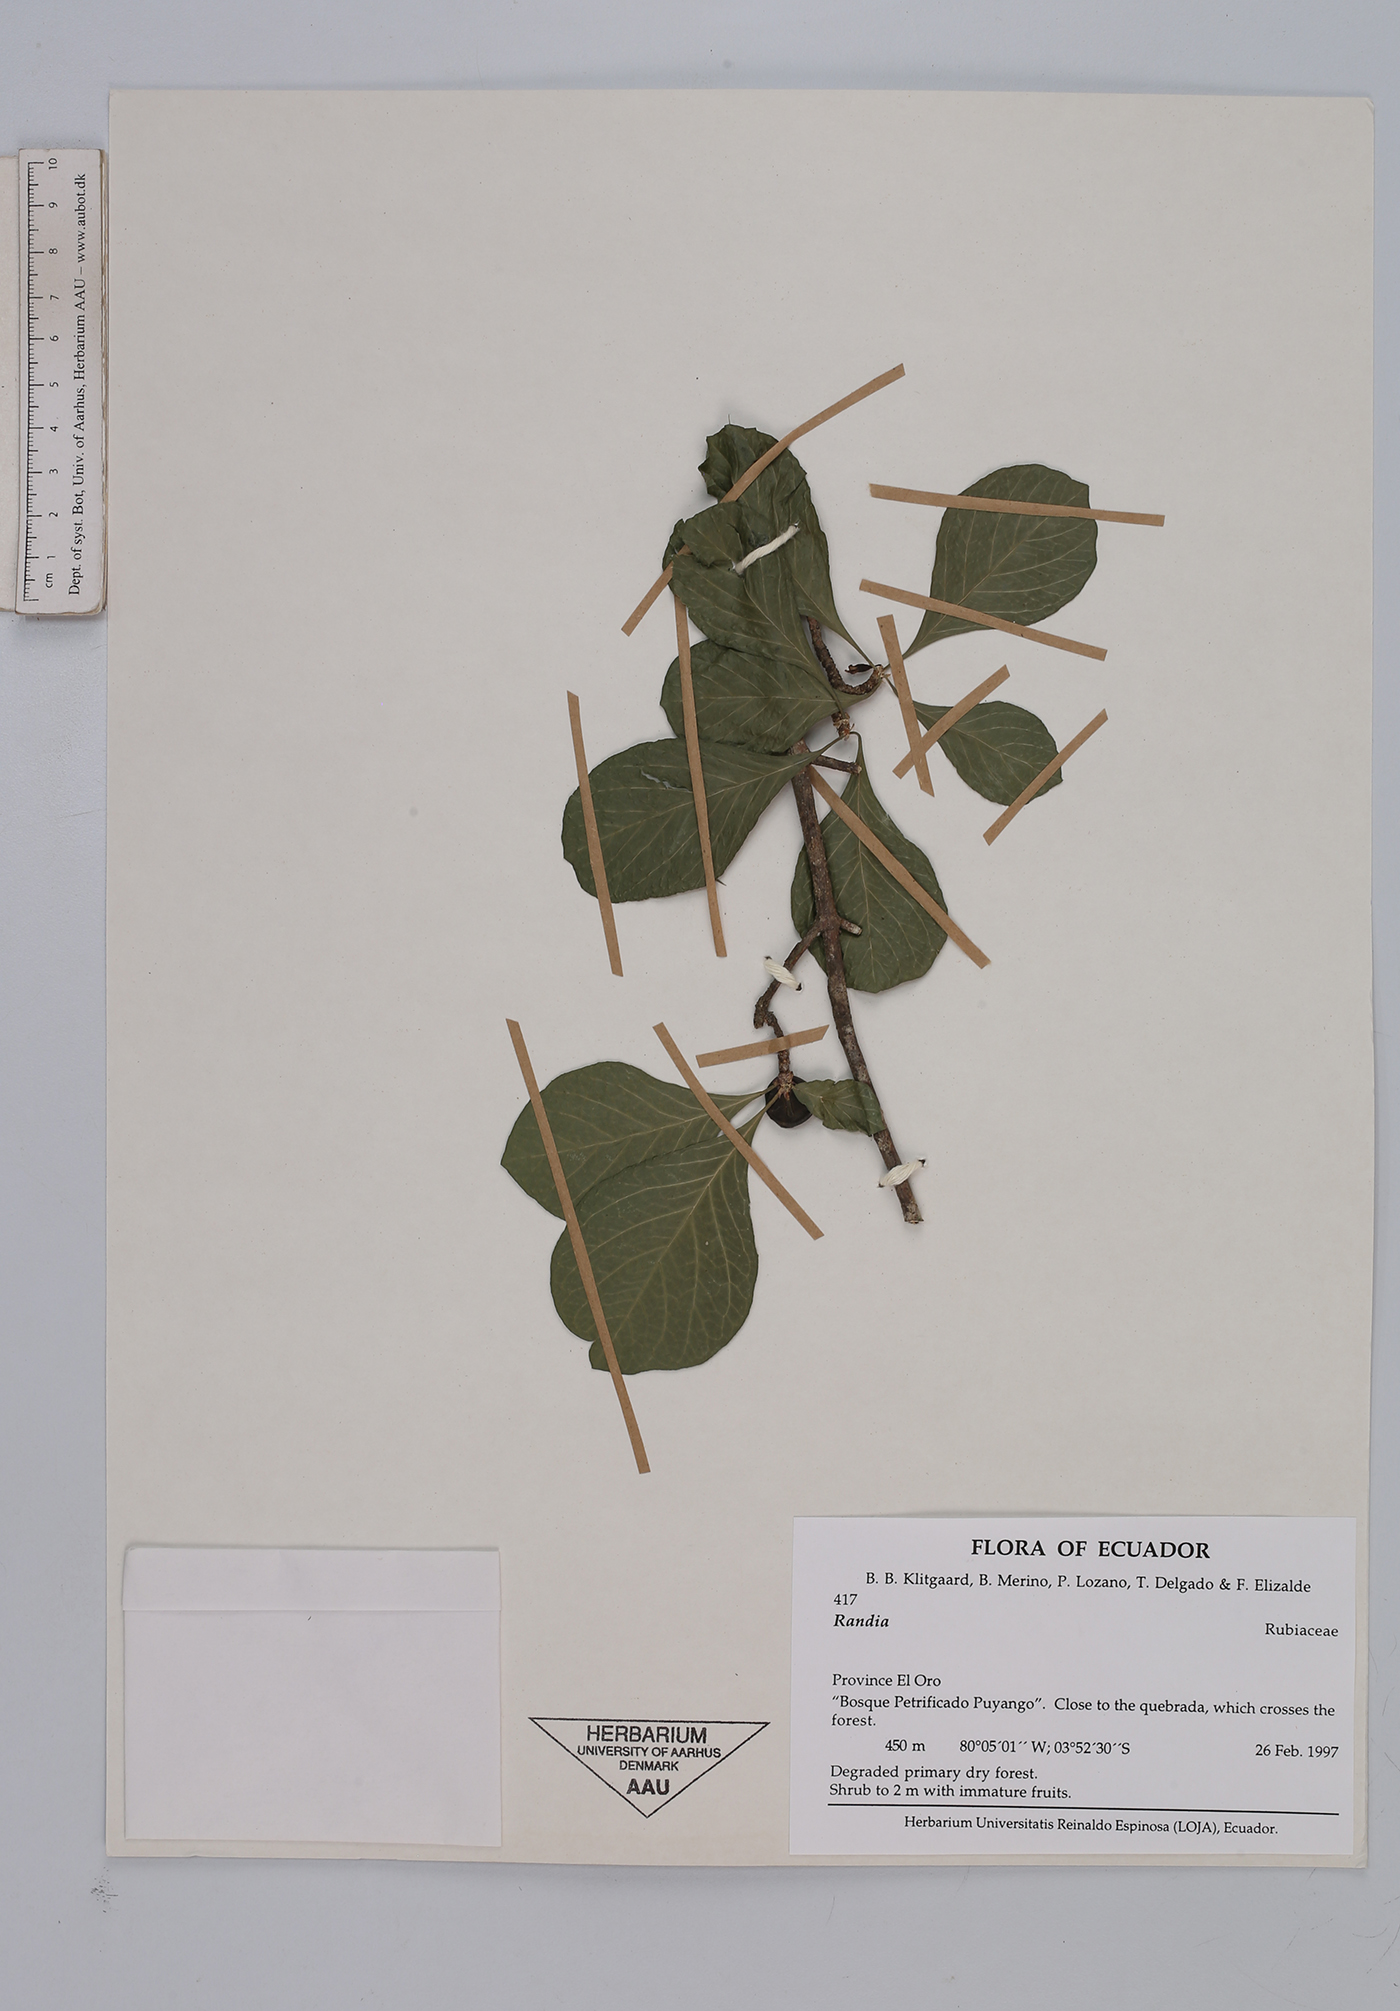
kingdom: Plantae
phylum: Tracheophyta
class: Magnoliopsida
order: Gentianales
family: Rubiaceae
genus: Randia
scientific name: Randia
